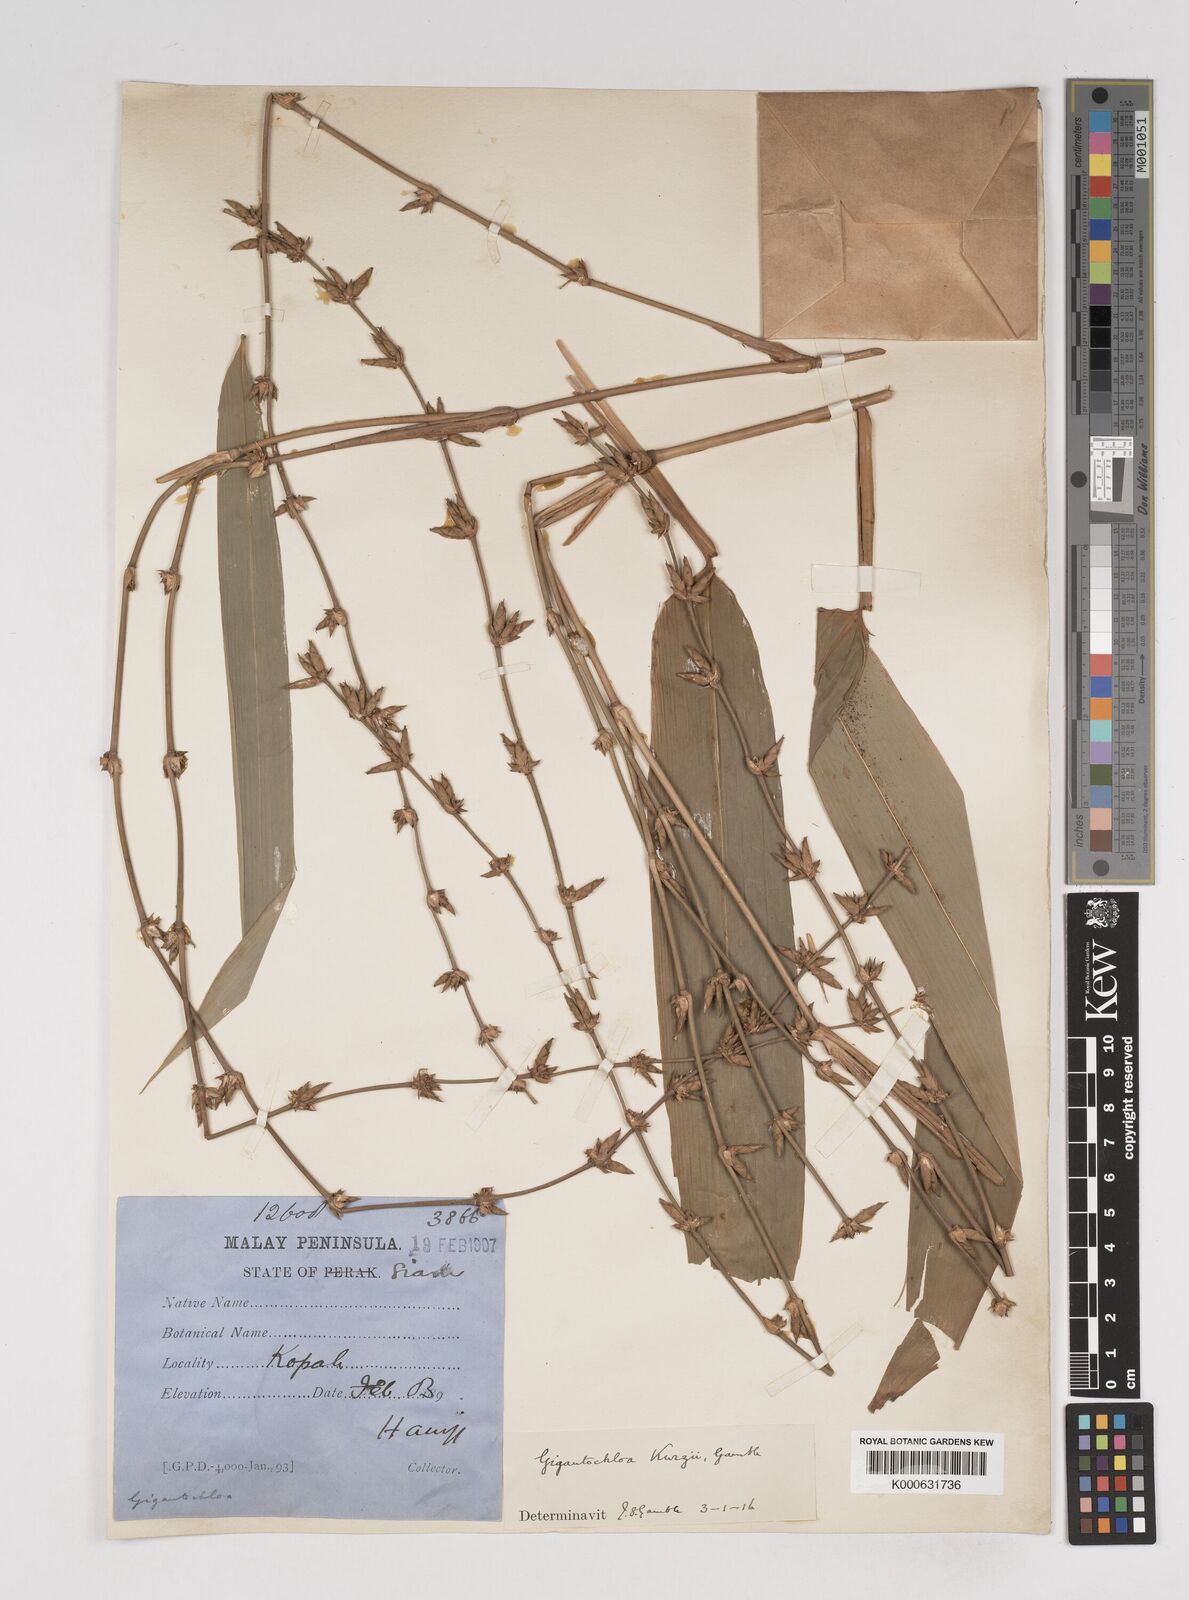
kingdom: Plantae
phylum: Tracheophyta
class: Liliopsida
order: Poales
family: Poaceae
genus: Gigantochloa
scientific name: Gigantochloa apus
